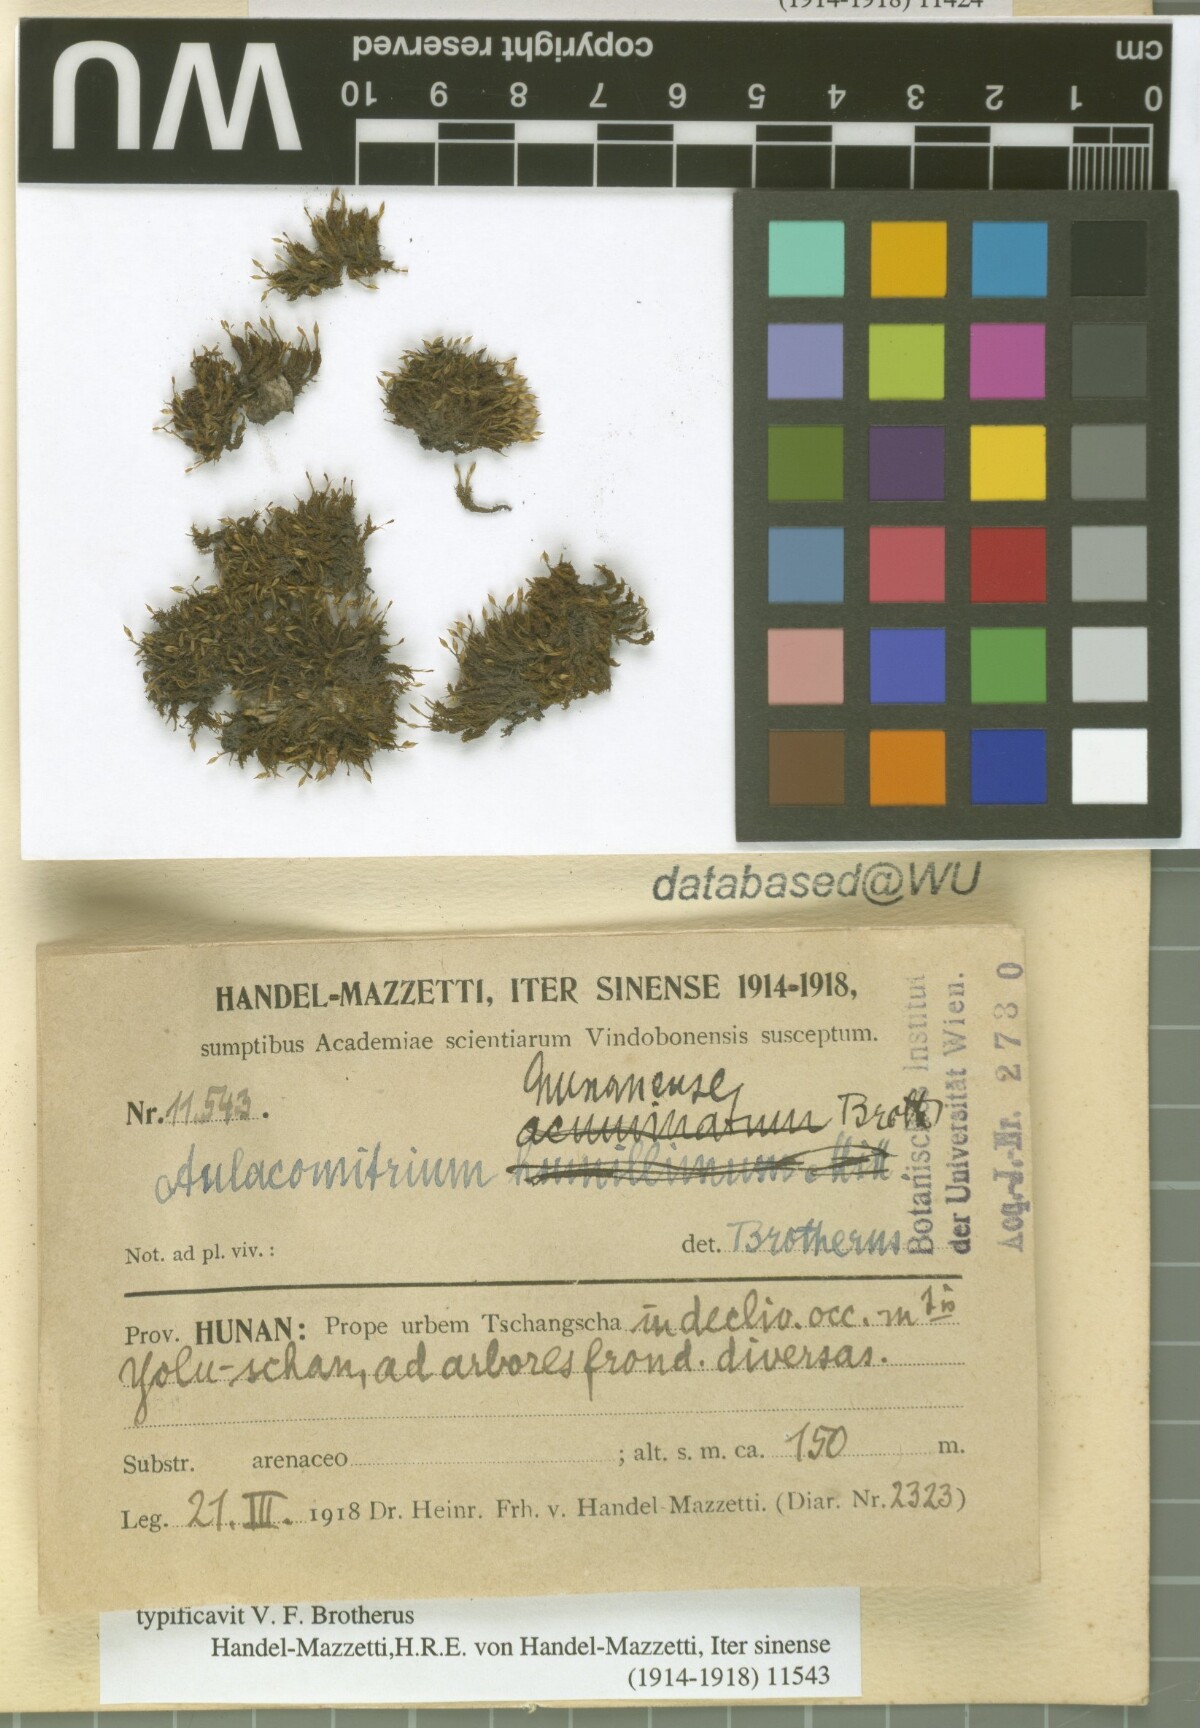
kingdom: Plantae
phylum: Bryophyta
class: Bryopsida
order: Dicranales
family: Rhabdoweisiaceae
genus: Glyphomitrium
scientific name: Glyphomitrium hunanense
